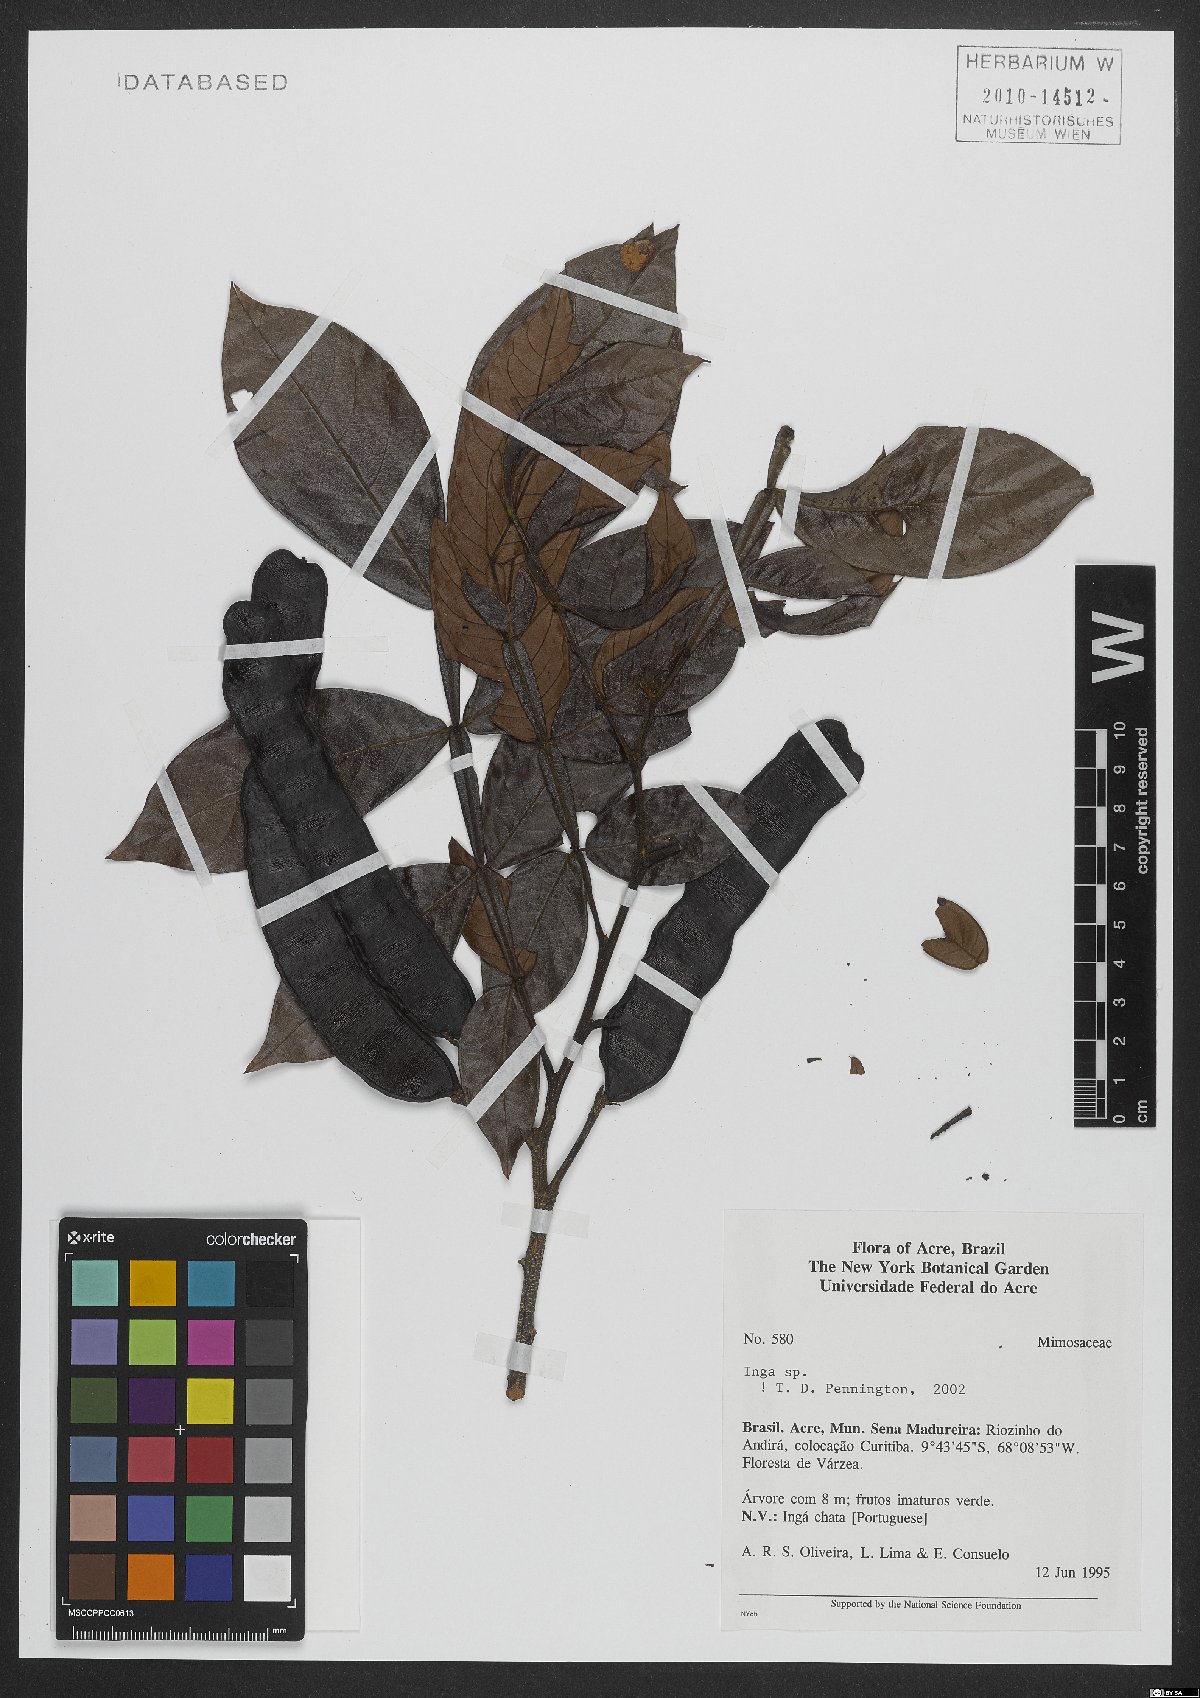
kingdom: Plantae
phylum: Tracheophyta
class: Magnoliopsida
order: Fabales
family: Fabaceae
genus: Inga
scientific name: Inga
